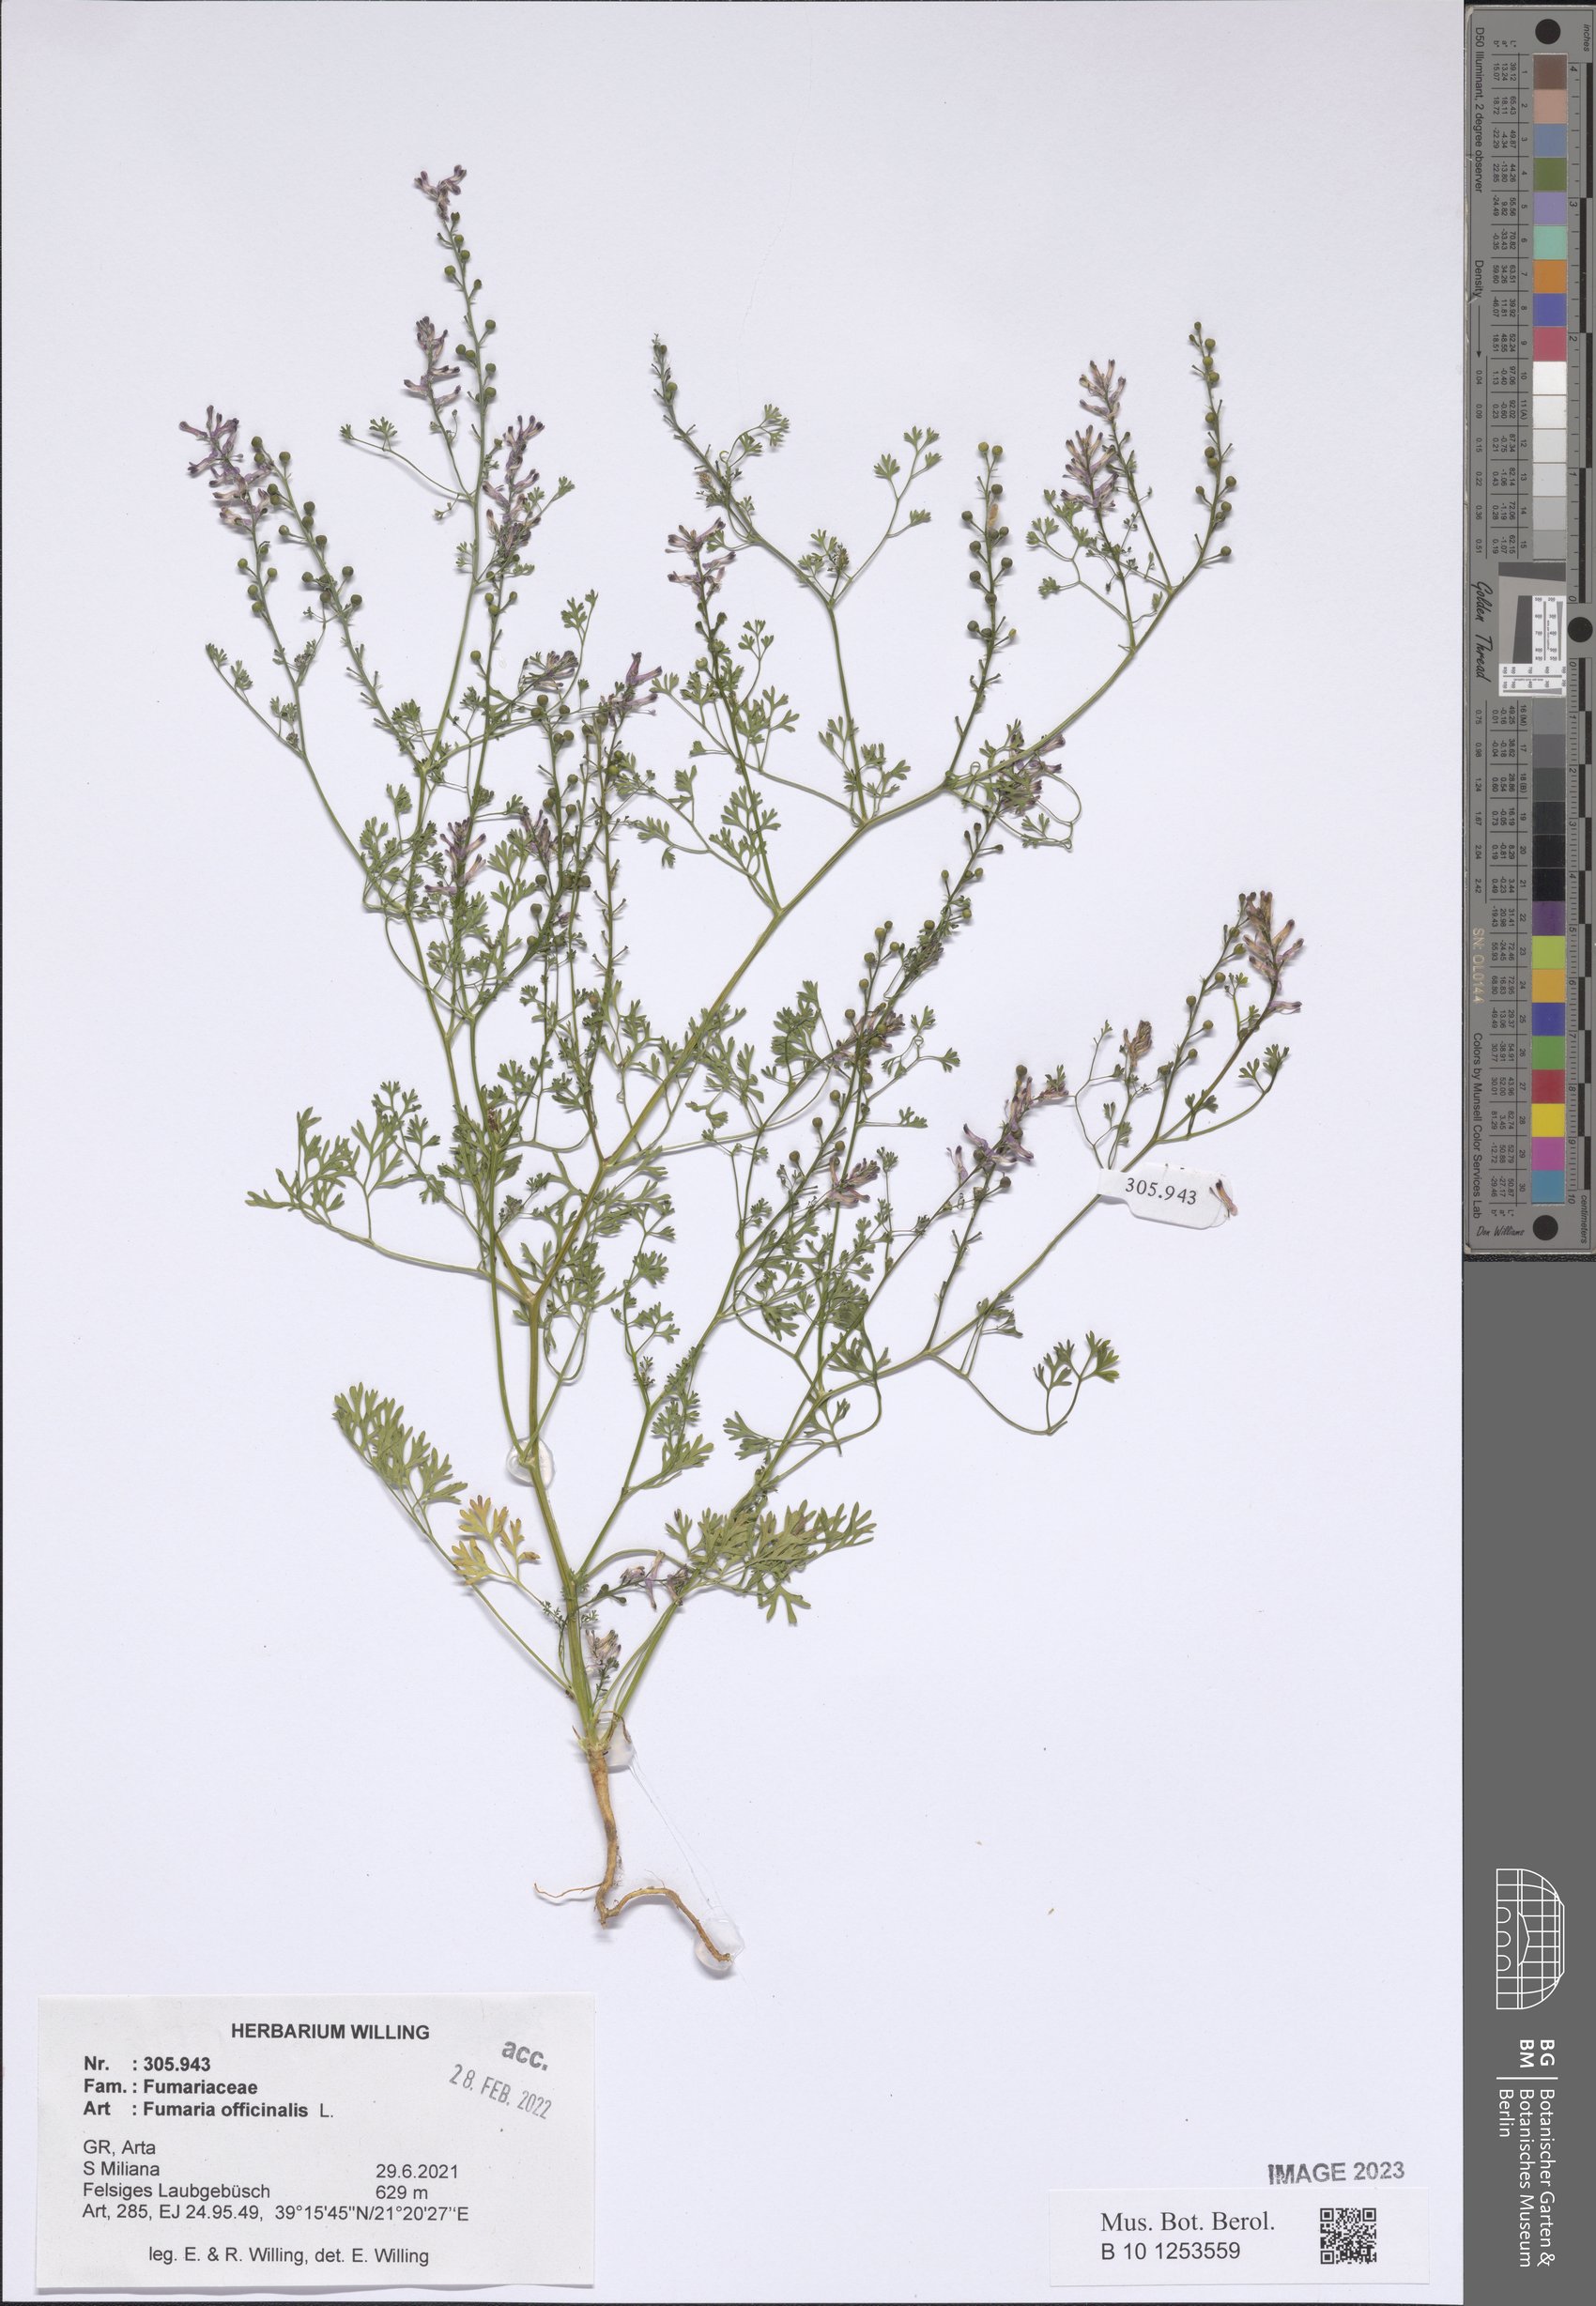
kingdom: Plantae
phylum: Tracheophyta
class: Magnoliopsida
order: Ranunculales
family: Papaveraceae
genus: Fumaria
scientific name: Fumaria officinalis
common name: Common fumitory
